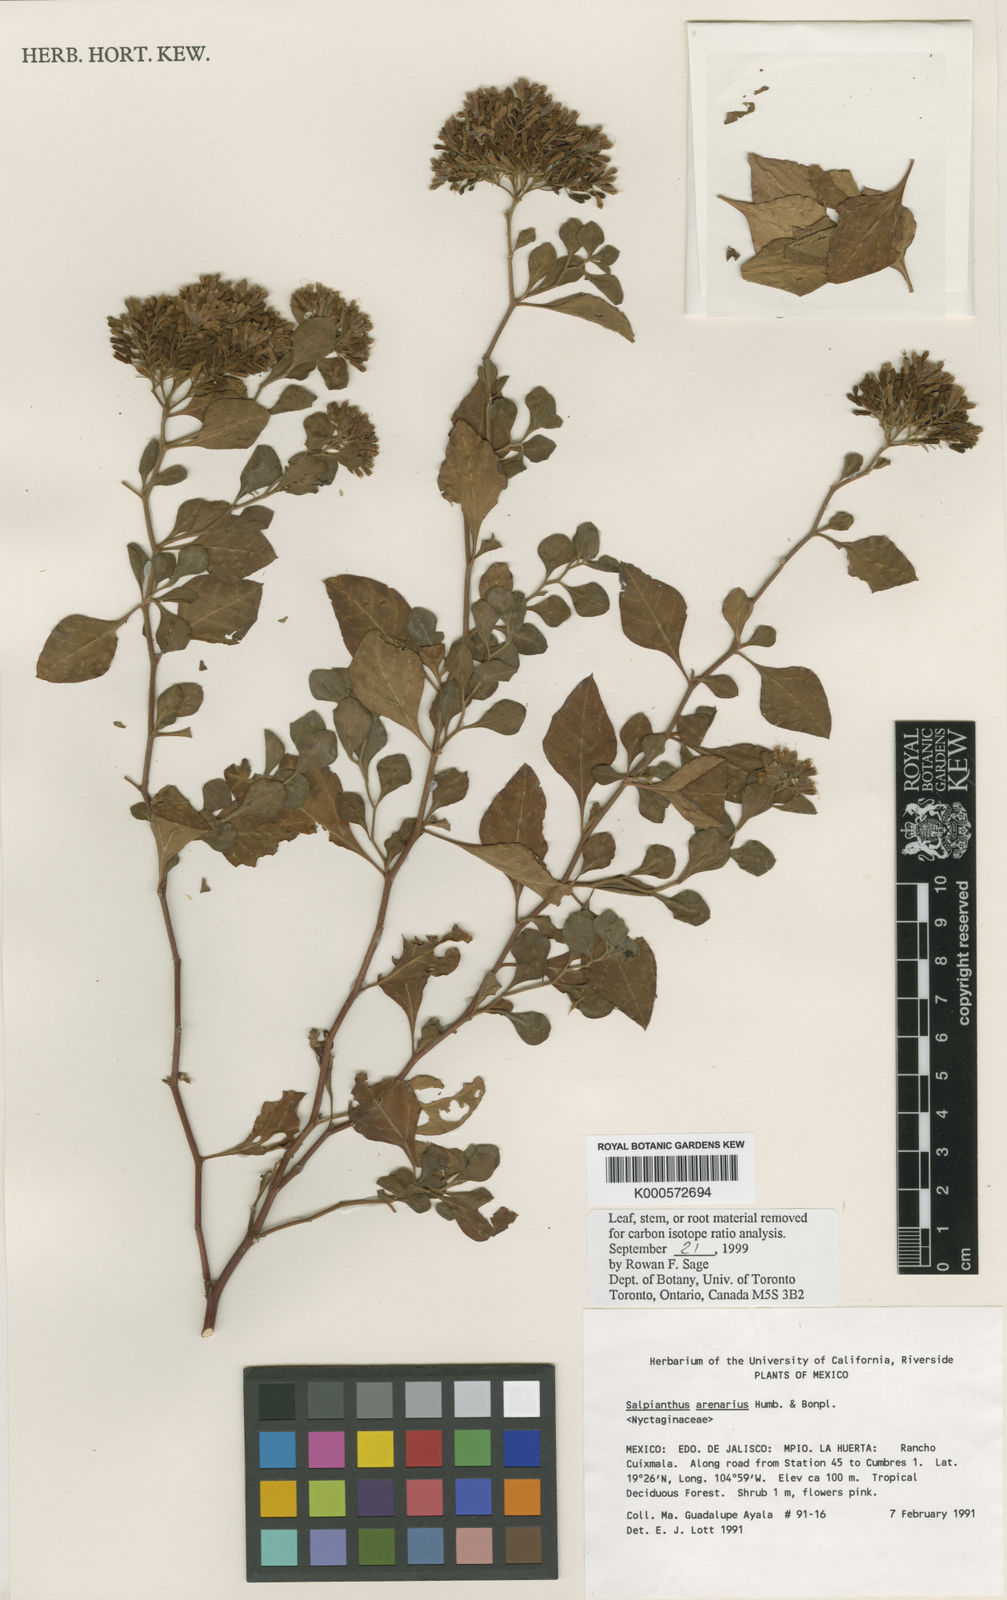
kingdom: Plantae
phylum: Tracheophyta
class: Magnoliopsida
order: Caryophyllales
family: Nyctaginaceae
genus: Salpianthus
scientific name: Salpianthus aequalis
